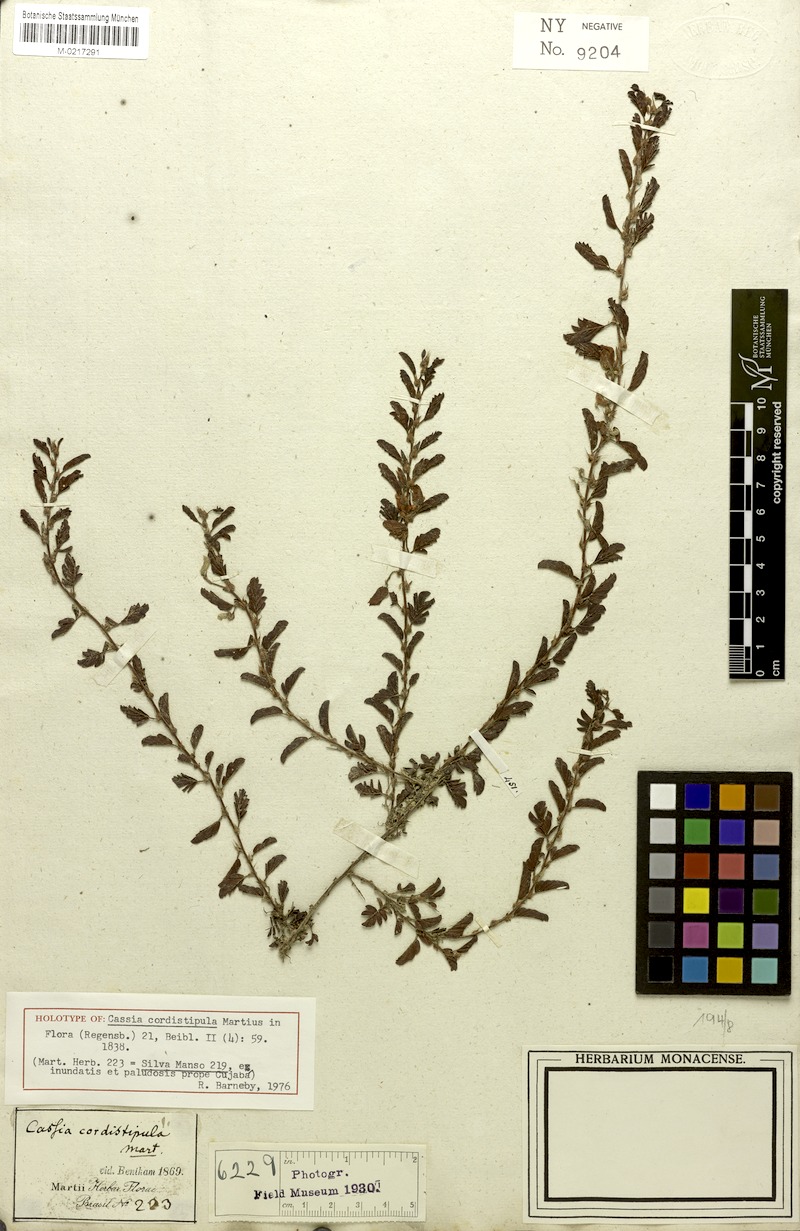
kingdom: Plantae
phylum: Tracheophyta
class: Magnoliopsida
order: Fabales
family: Fabaceae
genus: Chamaecrista
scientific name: Chamaecrista cordistipula
